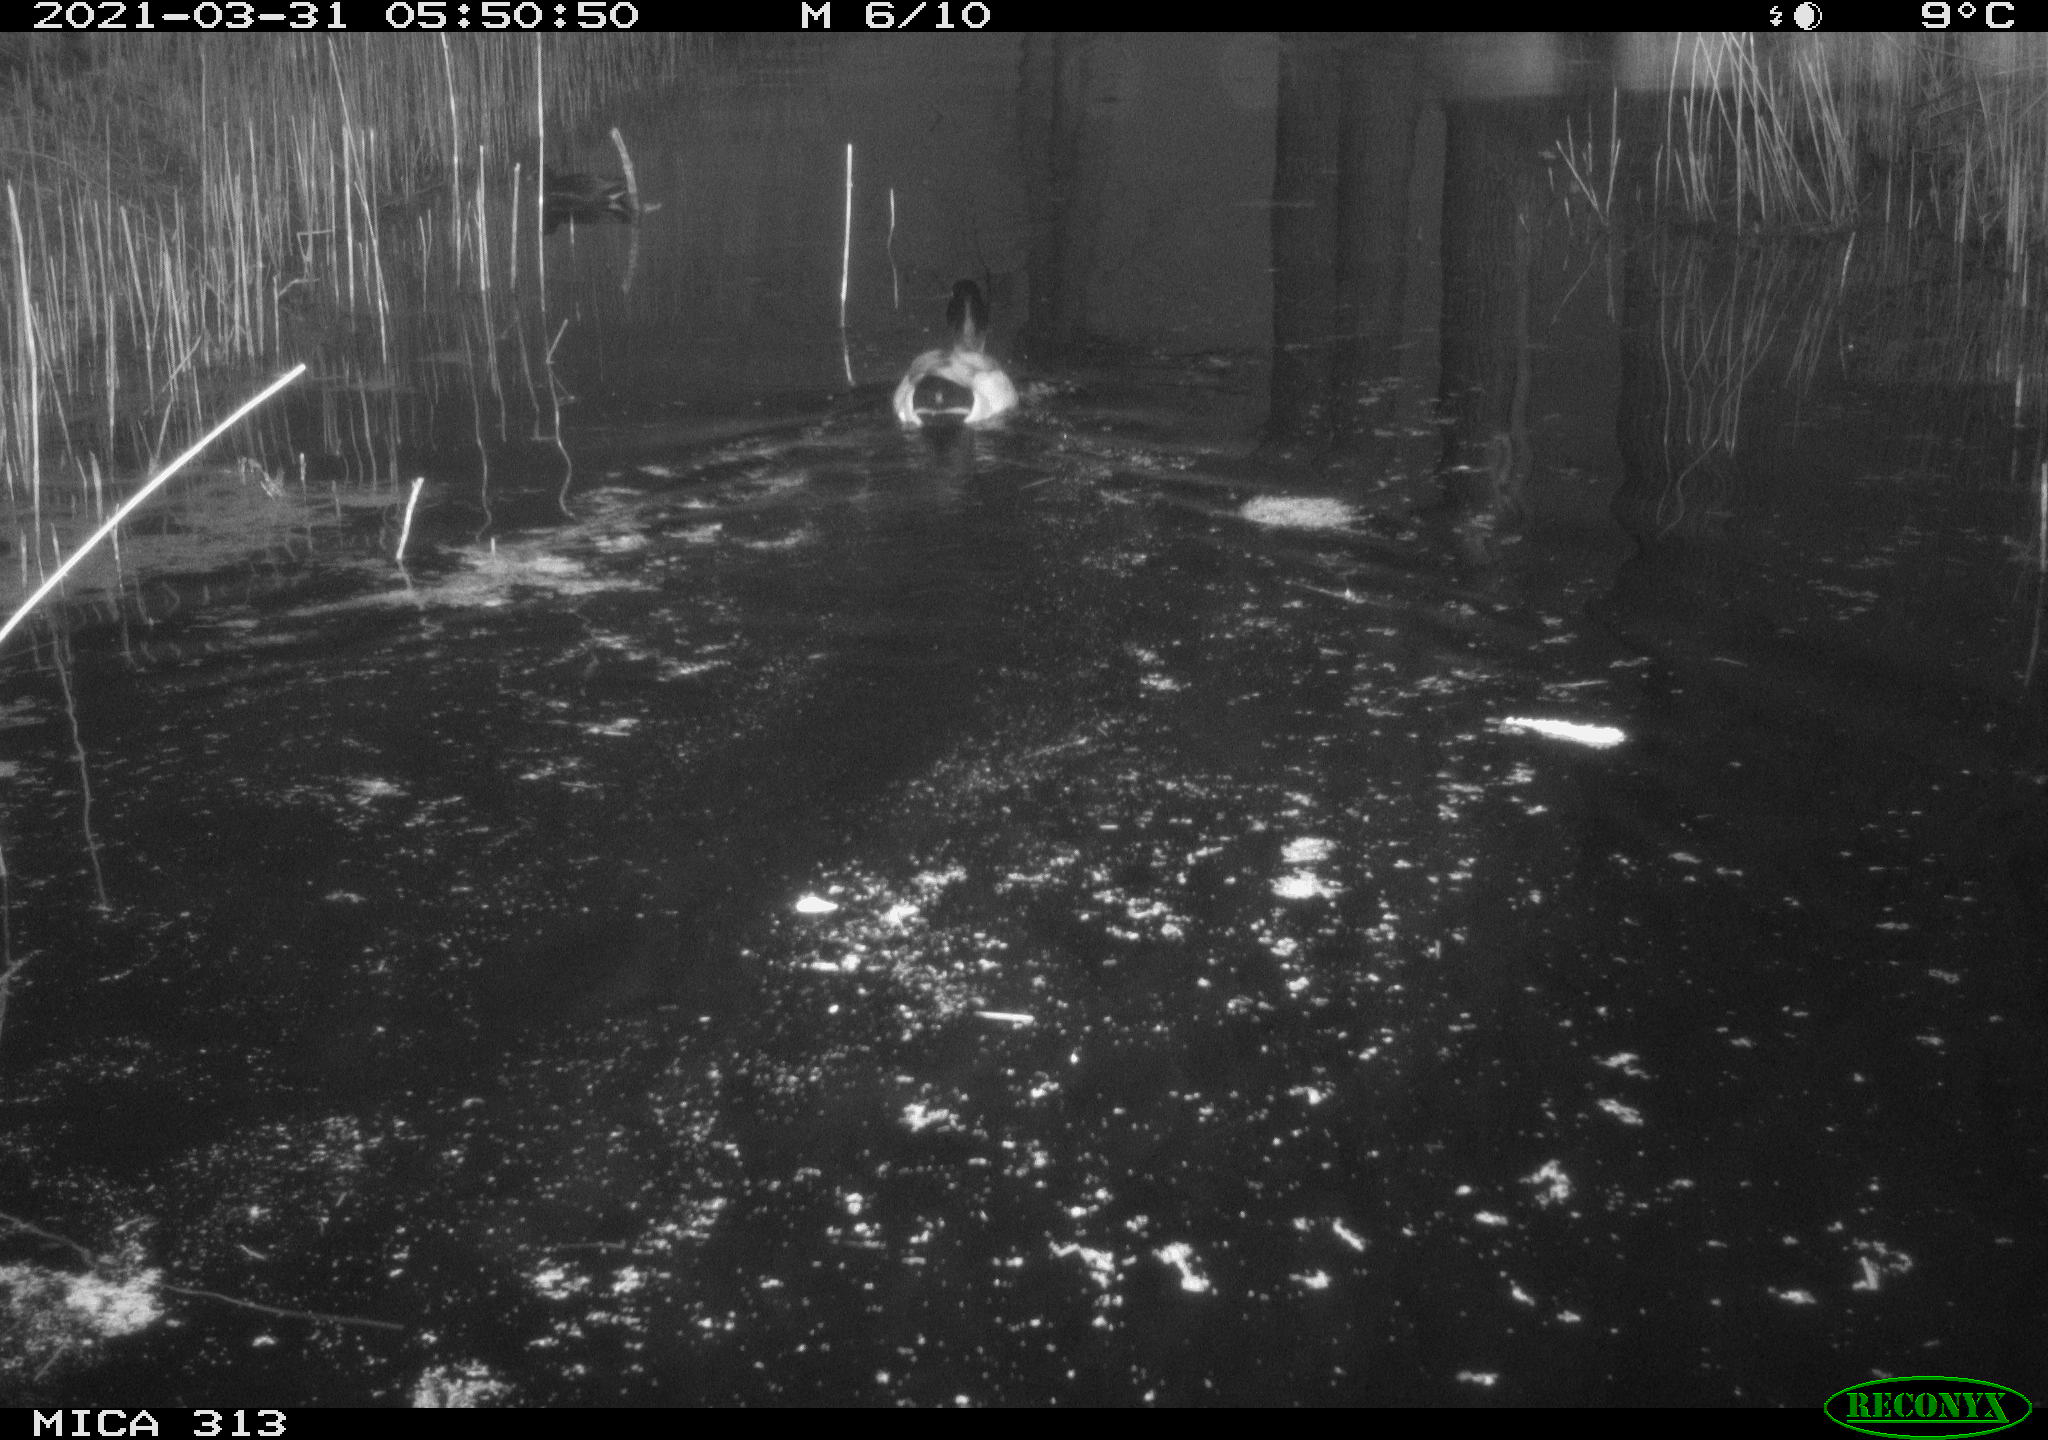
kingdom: Animalia
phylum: Chordata
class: Aves
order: Anseriformes
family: Anatidae
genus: Anas
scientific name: Anas platyrhynchos
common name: Mallard
